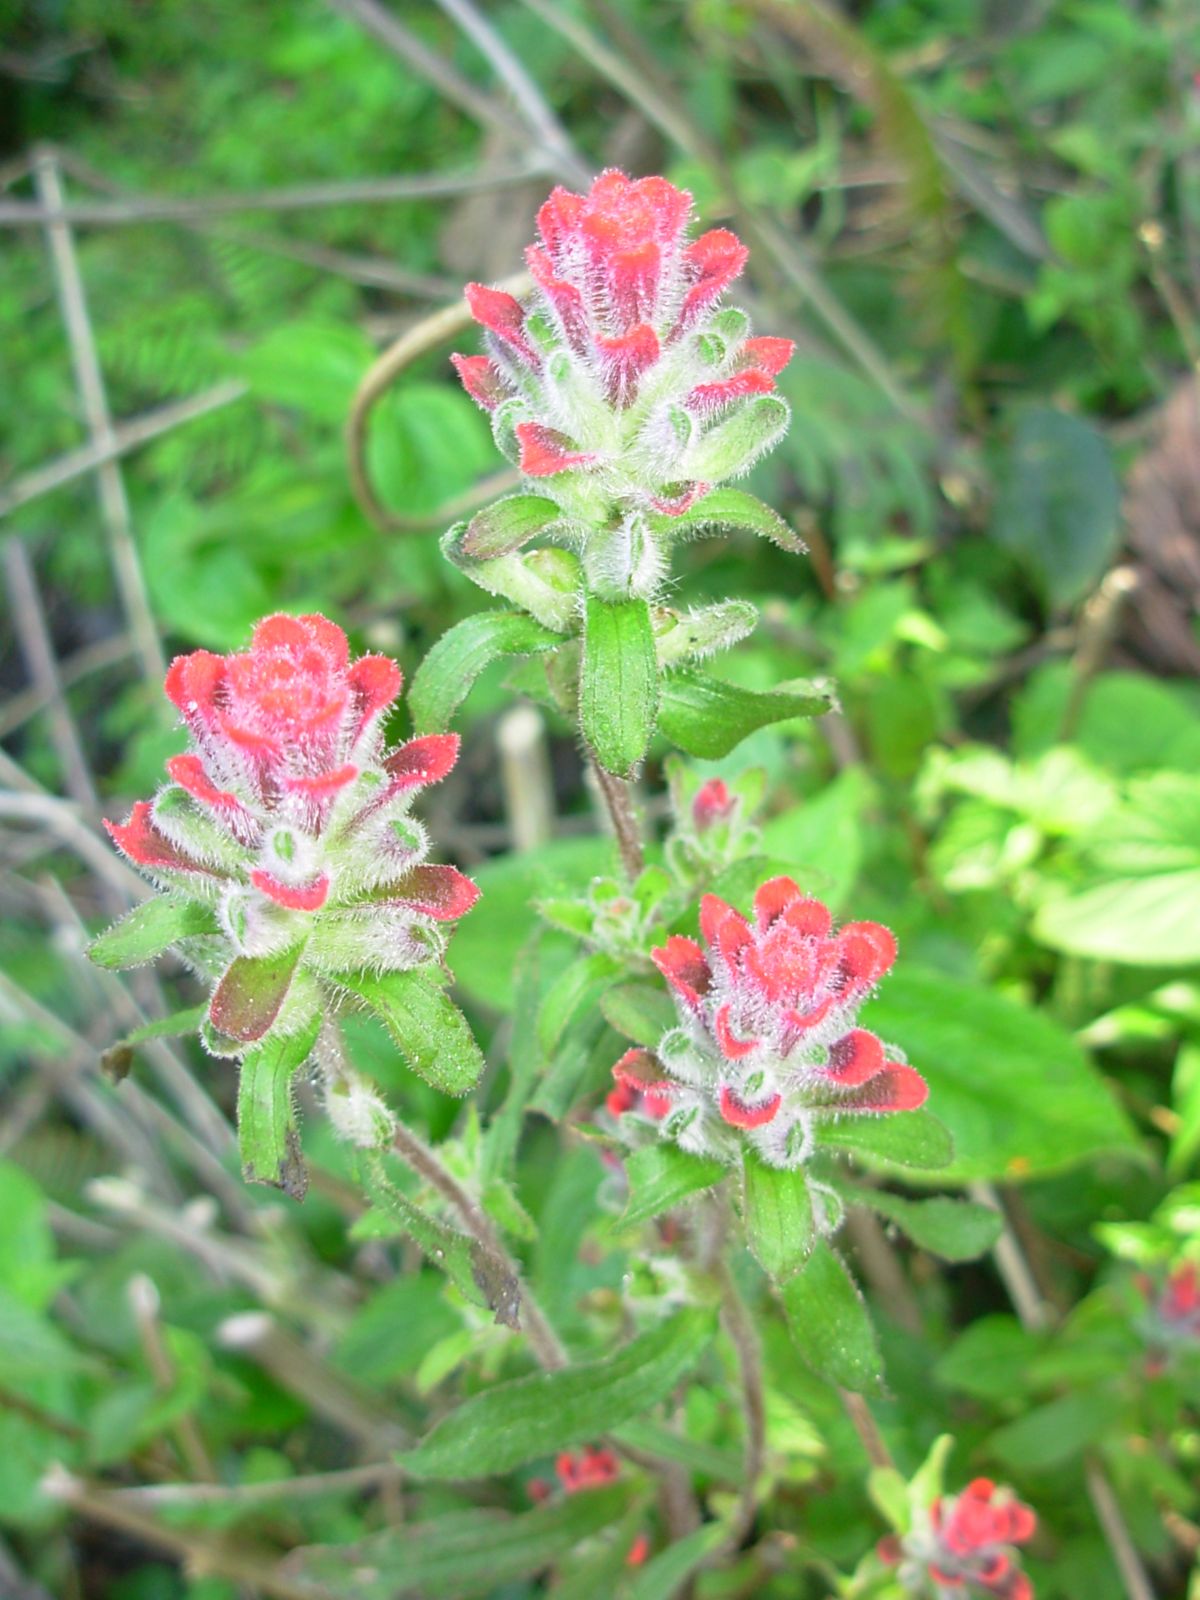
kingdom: Plantae
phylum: Tracheophyta
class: Magnoliopsida
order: Lamiales
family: Orobanchaceae
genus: Castilleja
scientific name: Castilleja arvensis
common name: Indian paintbrush
